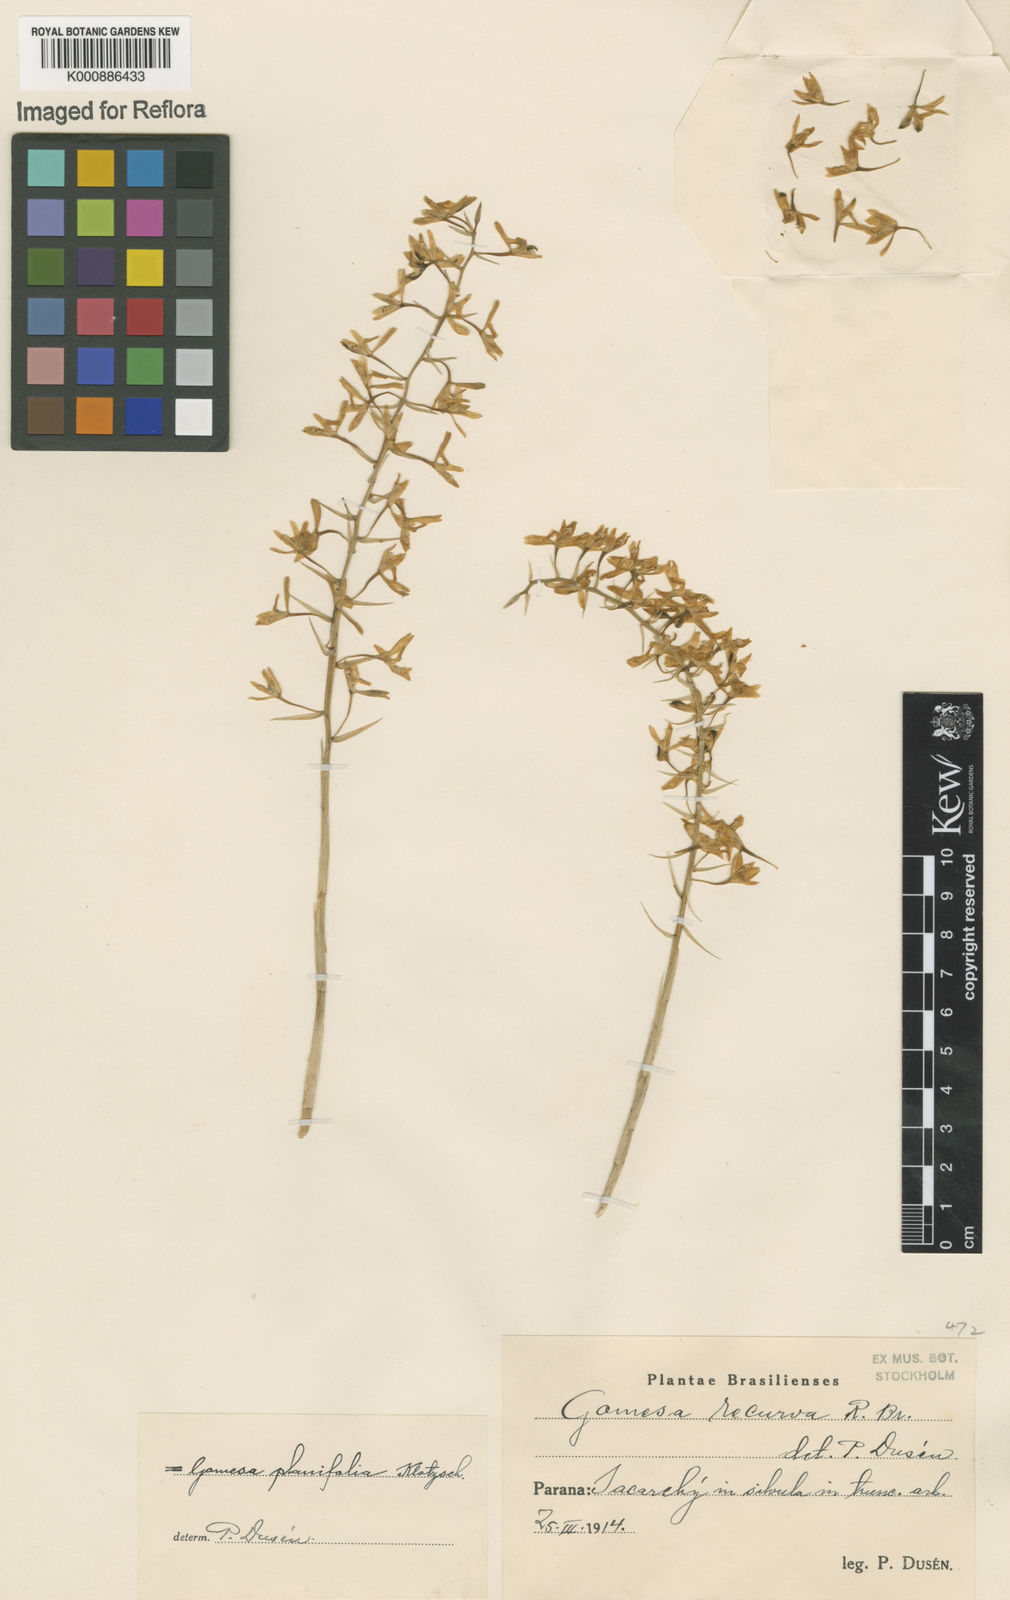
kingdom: Plantae
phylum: Tracheophyta
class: Liliopsida
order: Asparagales
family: Orchidaceae
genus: Gomesa
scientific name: Gomesa recurva
